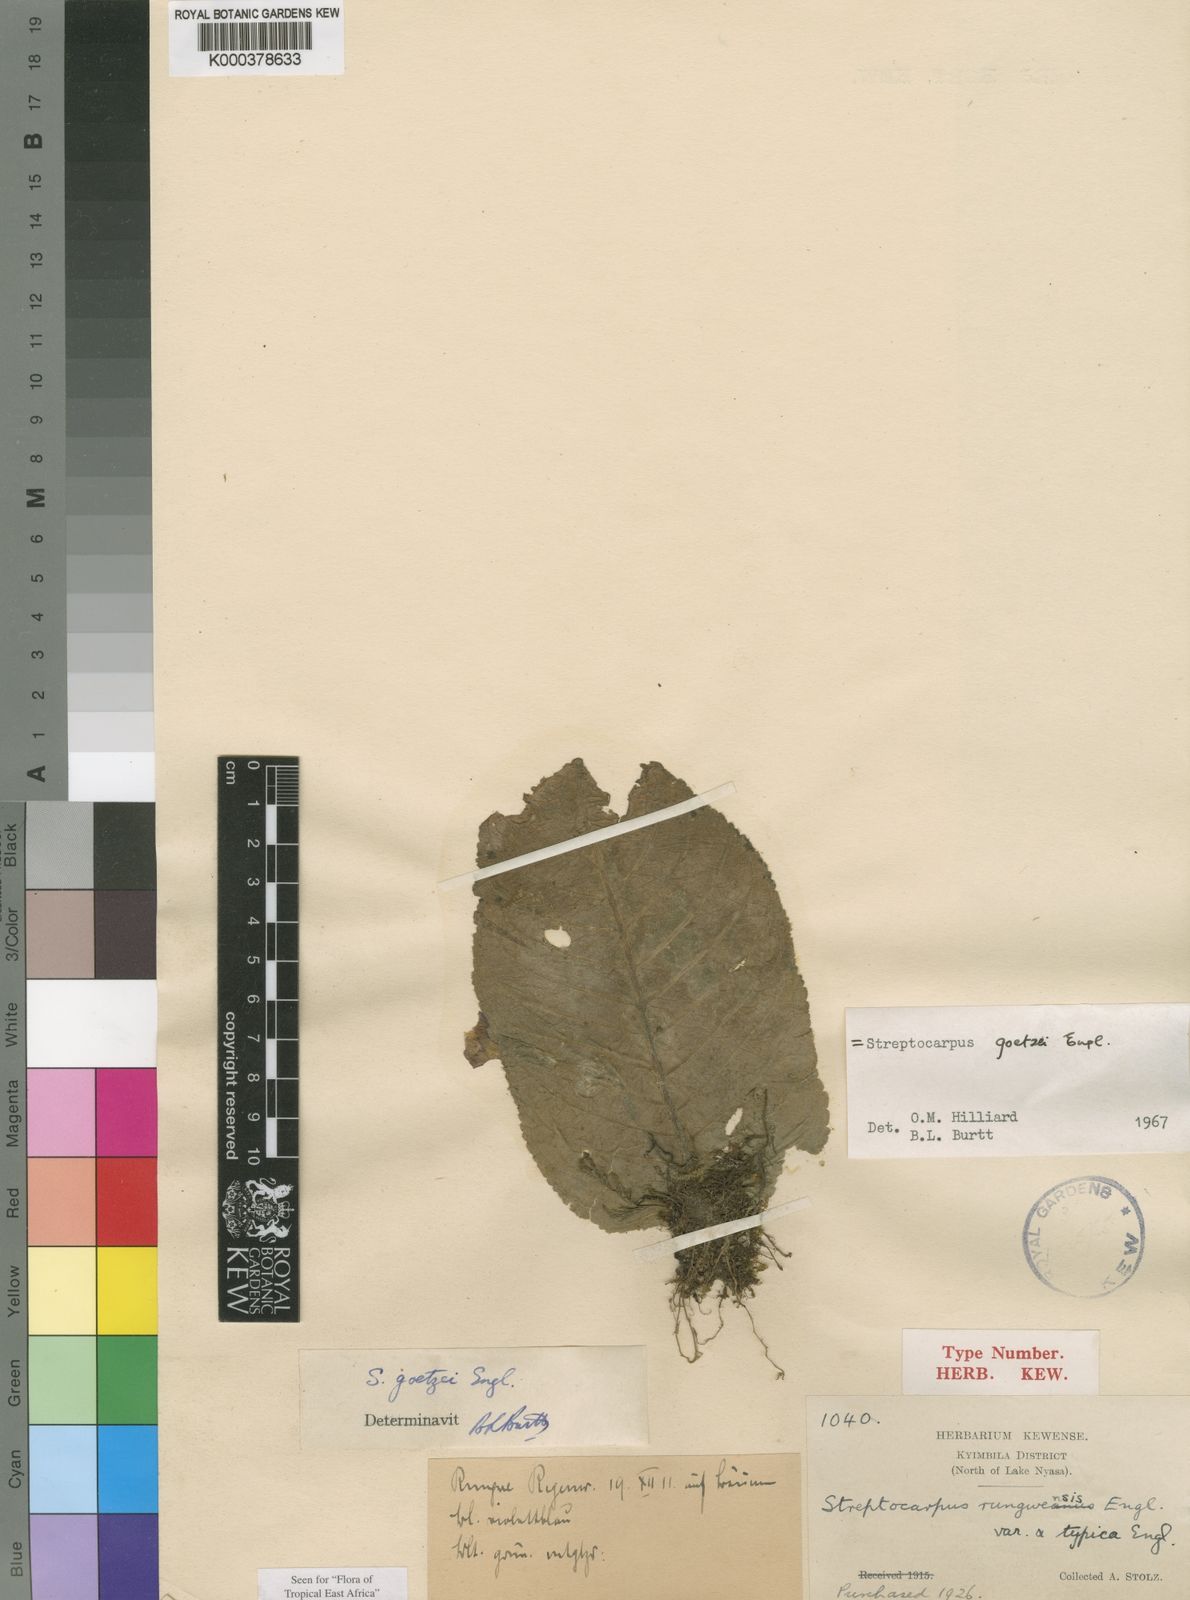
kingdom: Plantae
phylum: Tracheophyta
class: Magnoliopsida
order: Lamiales
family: Gesneriaceae
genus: Streptocarpus
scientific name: Streptocarpus goetzei
